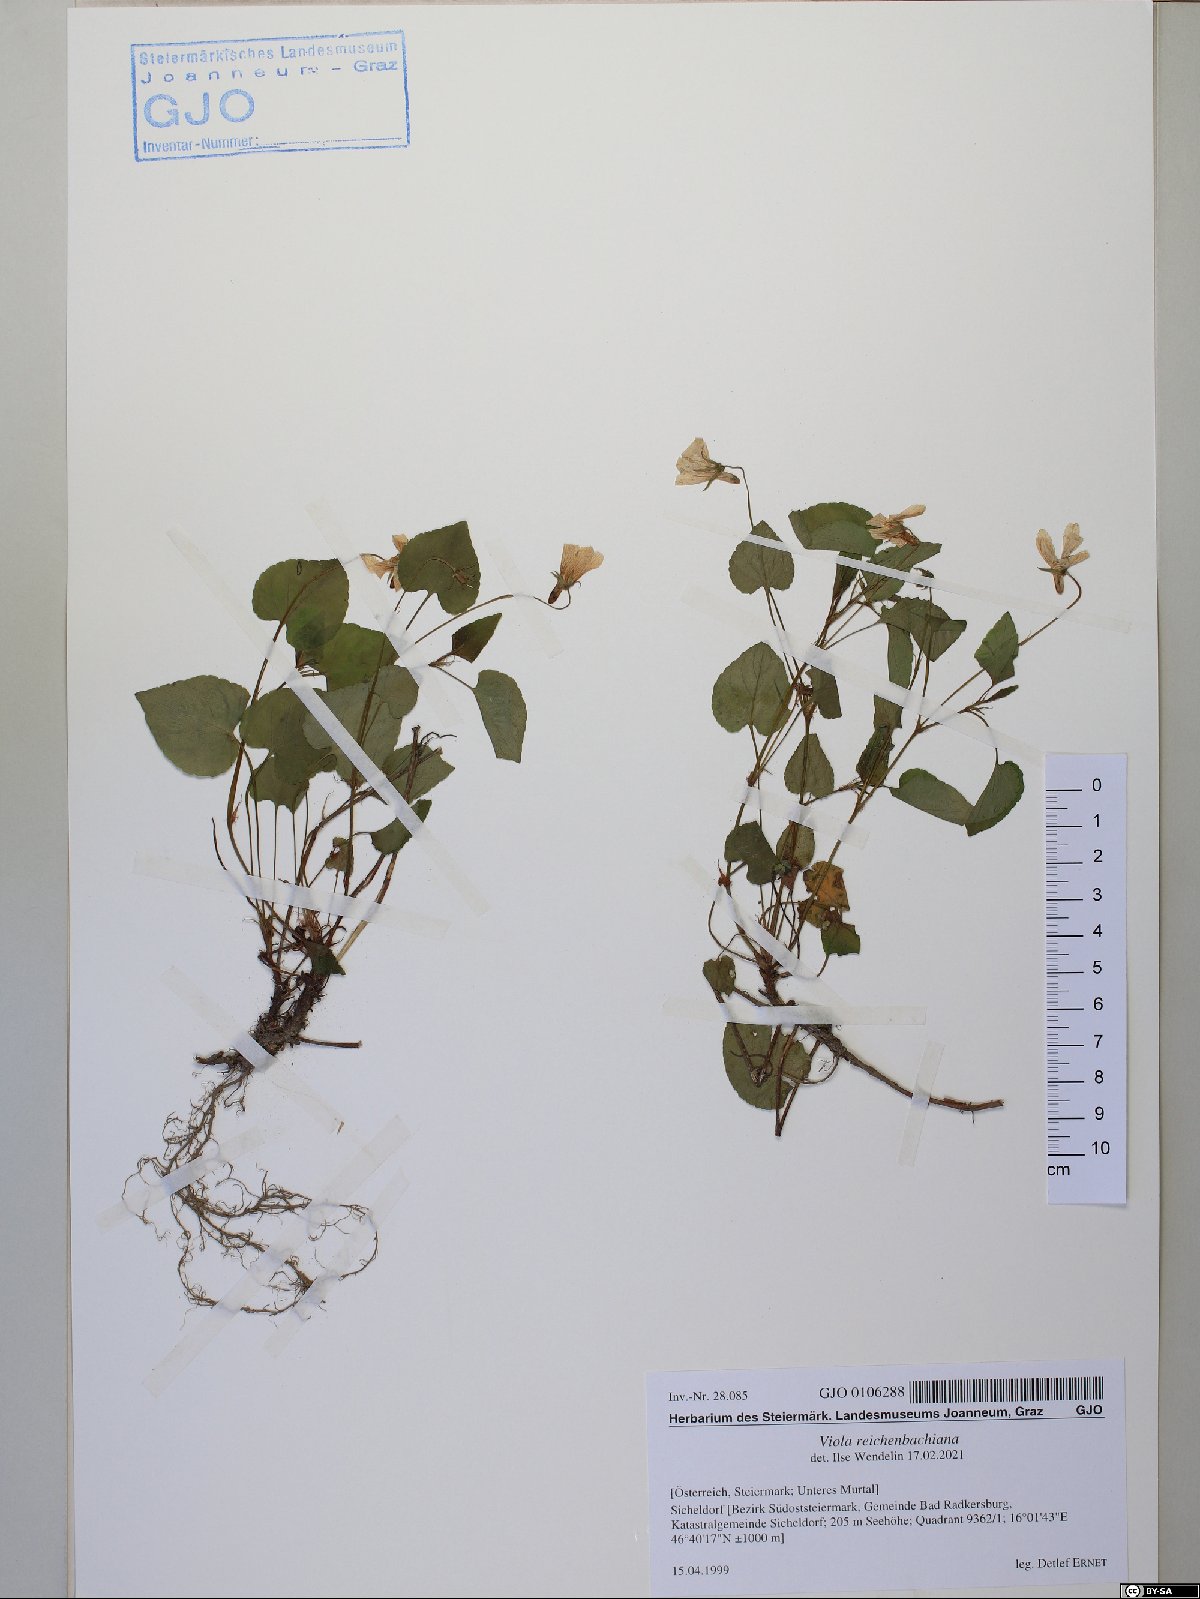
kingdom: Plantae
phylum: Tracheophyta
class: Magnoliopsida
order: Malpighiales
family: Violaceae
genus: Viola
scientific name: Viola reichenbachiana
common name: Early dog-violet
